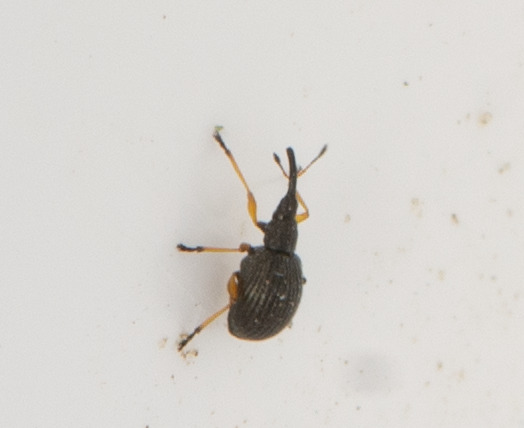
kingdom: Animalia
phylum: Arthropoda
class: Insecta
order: Coleoptera
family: Apionidae
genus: Protapion
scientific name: Protapion fulvipes
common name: Hvidkløversnudebille
